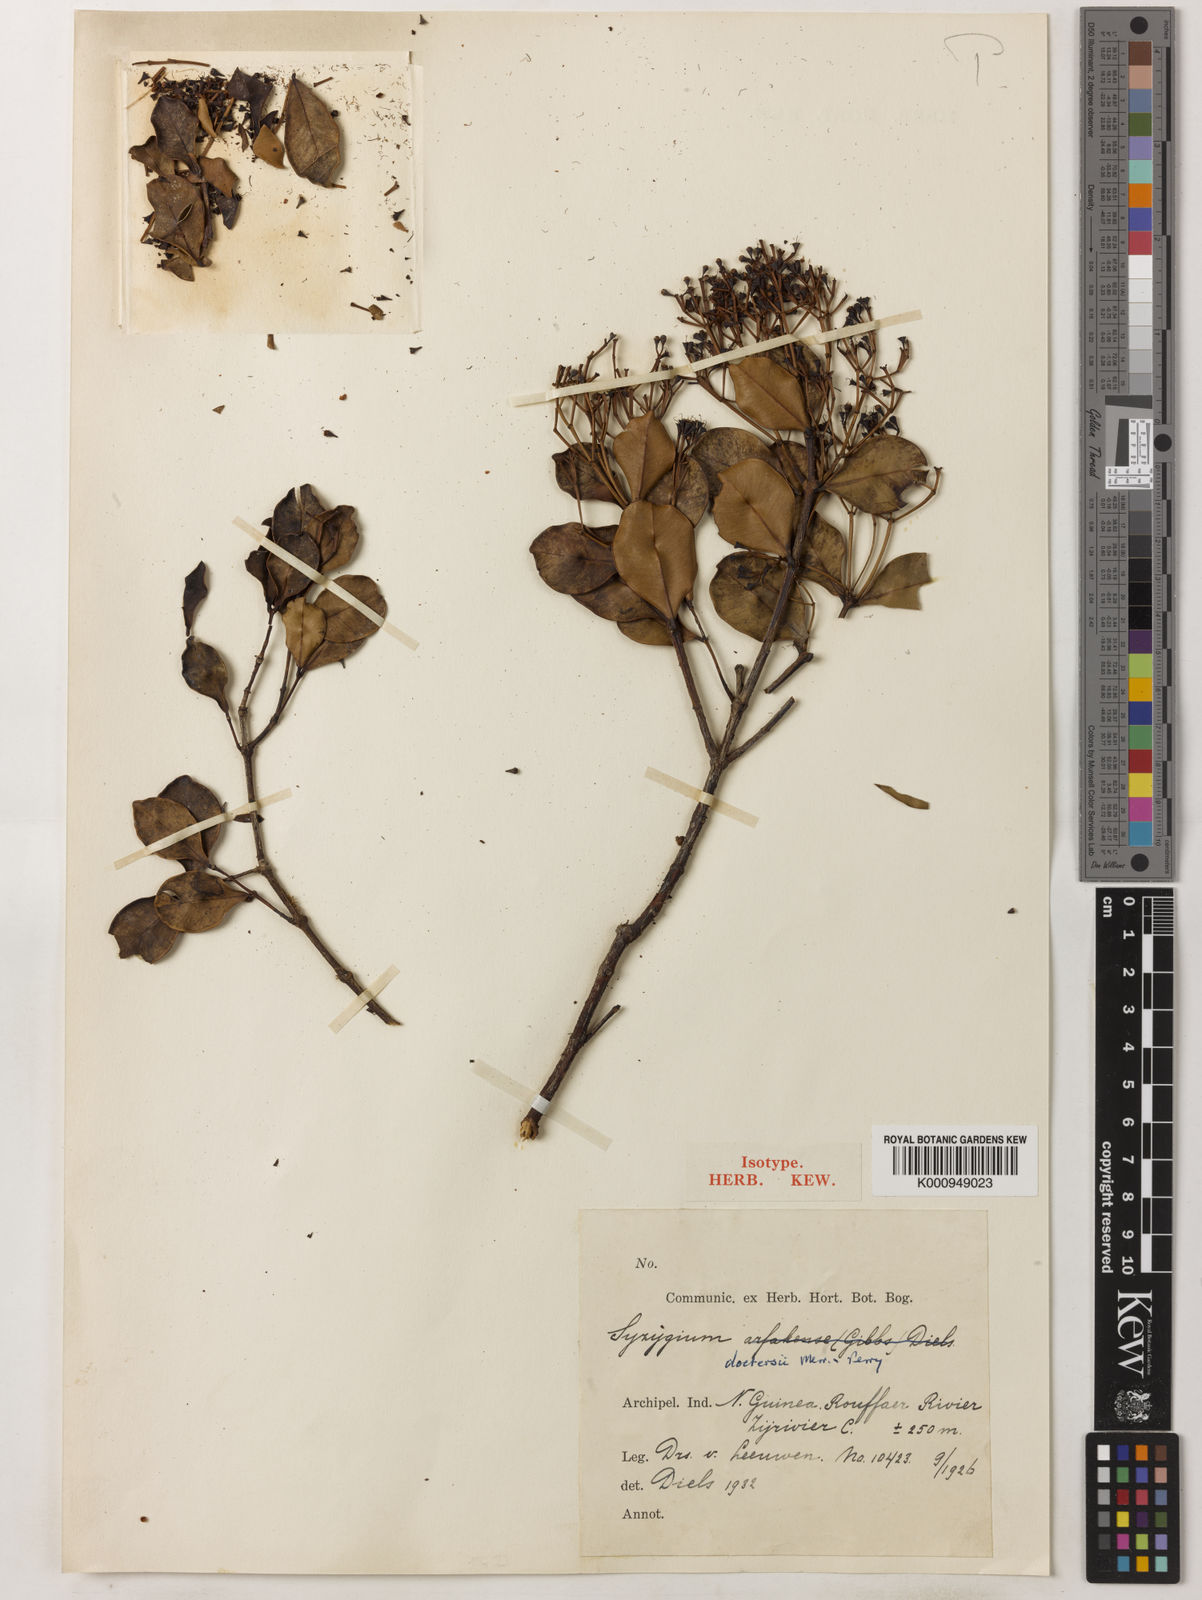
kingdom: Plantae
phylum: Tracheophyta
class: Magnoliopsida
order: Myrtales
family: Myrtaceae
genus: Syzygium
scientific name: Syzygium
